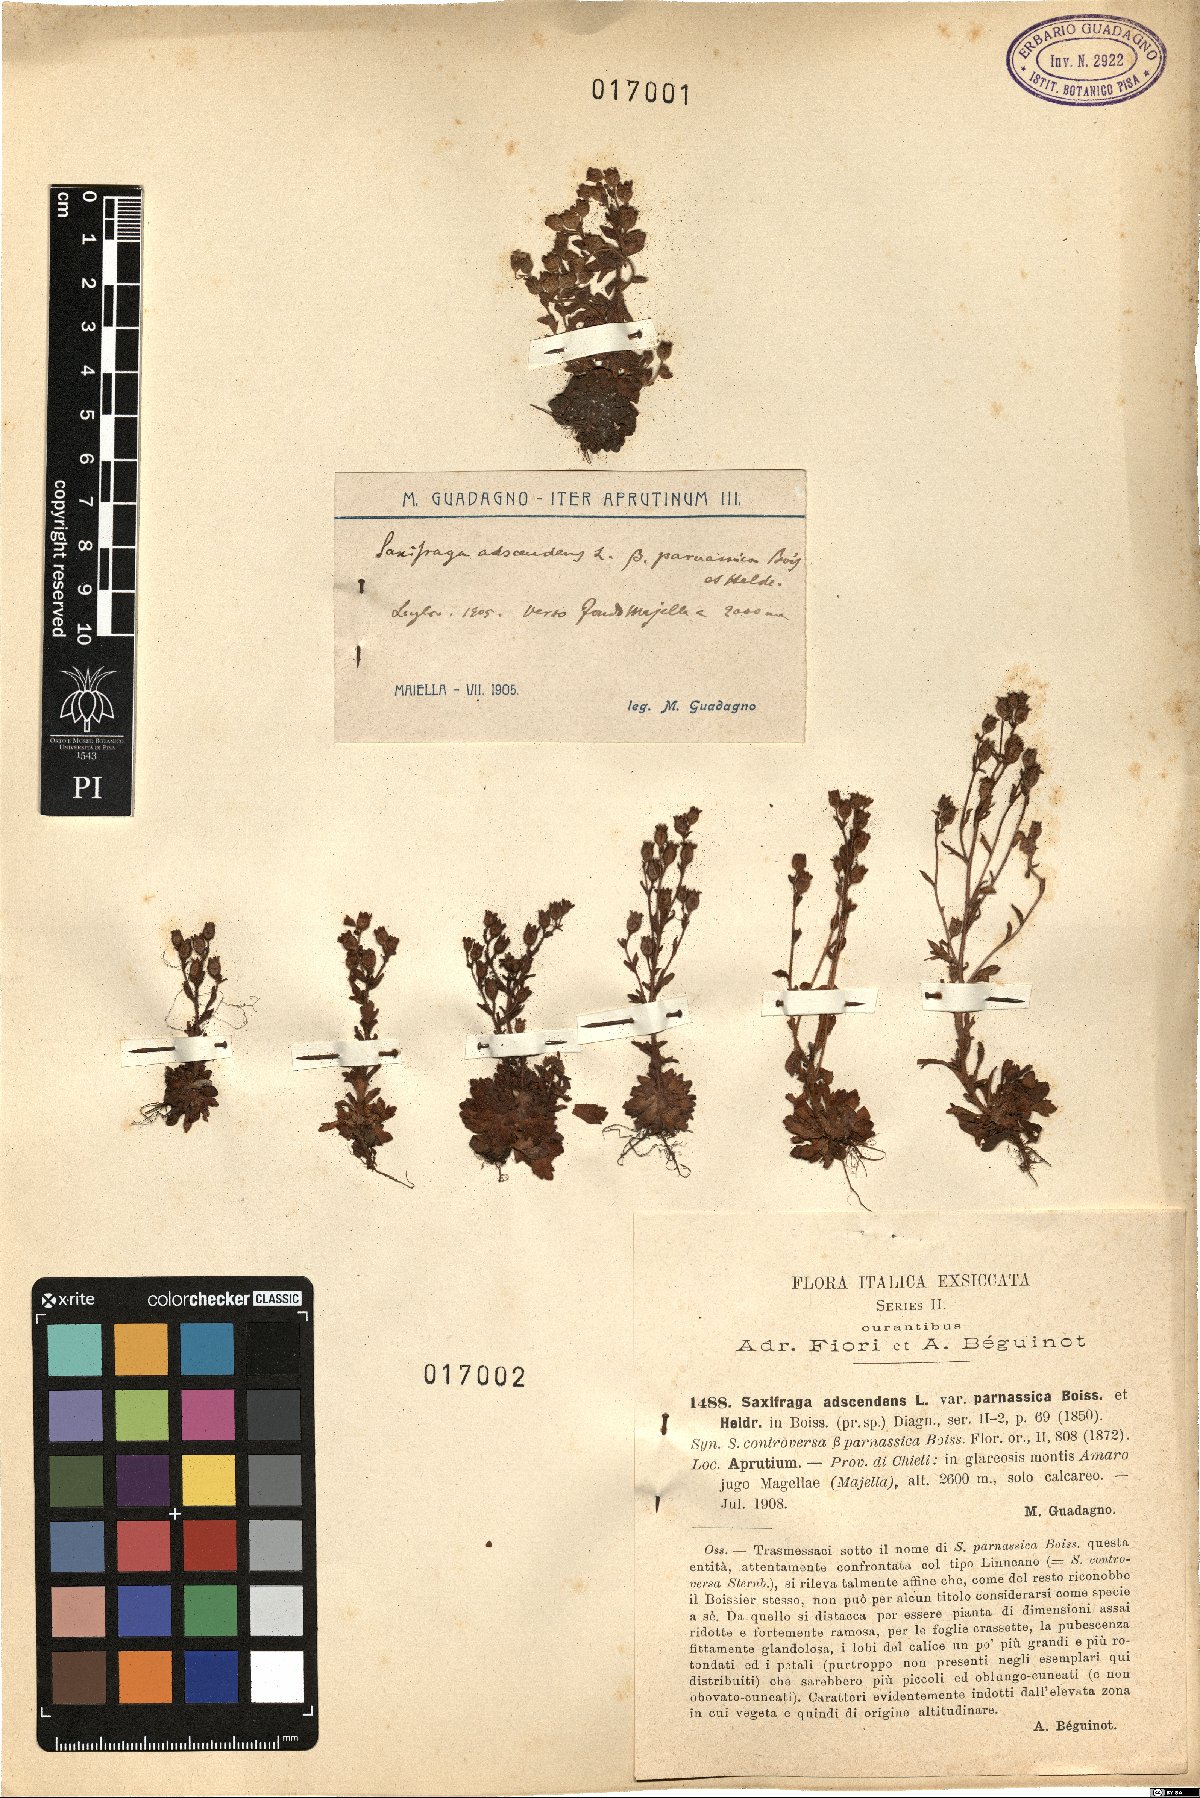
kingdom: Plantae
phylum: Tracheophyta
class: Magnoliopsida
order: Saxifragales
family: Saxifragaceae
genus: Saxifraga
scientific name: Saxifraga adscendens
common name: Ascending saxifrage
